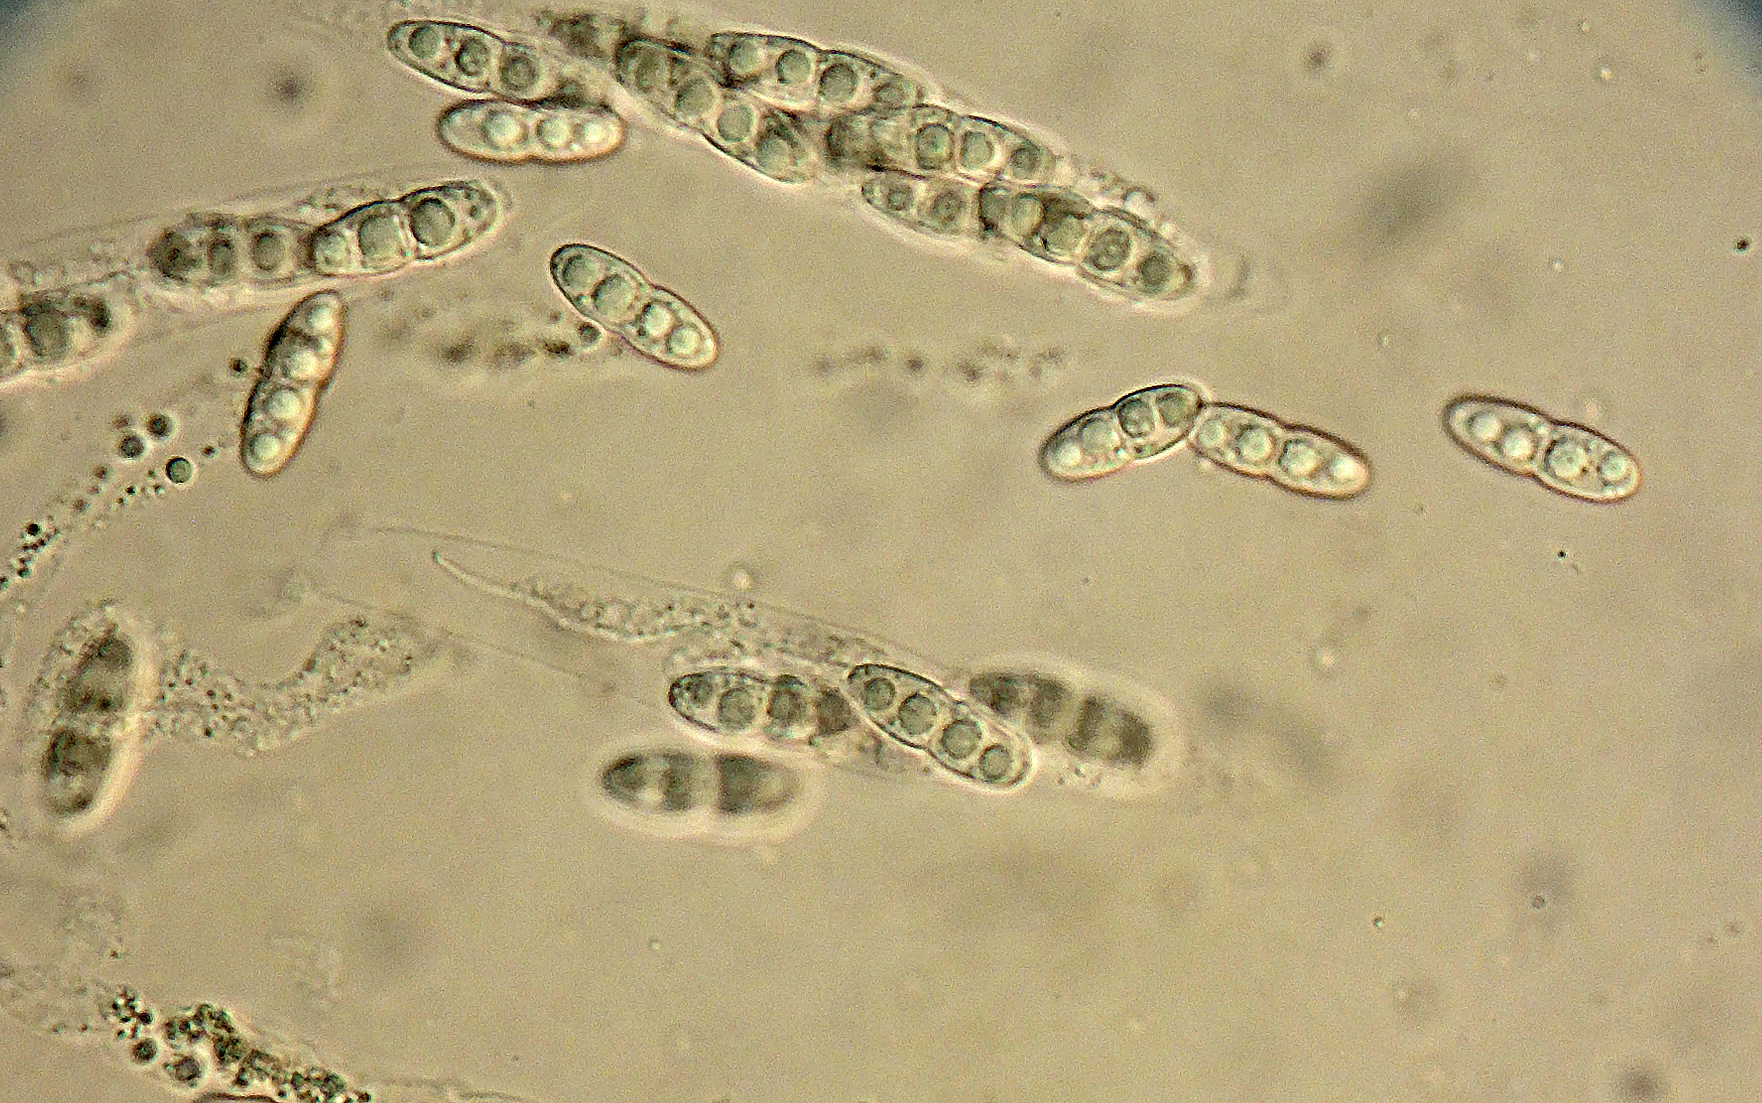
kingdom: Fungi
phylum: Ascomycota
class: Sordariomycetes
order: Diaporthales
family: Diaporthaceae
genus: Diaporthe
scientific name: Diaporthe impulsa
